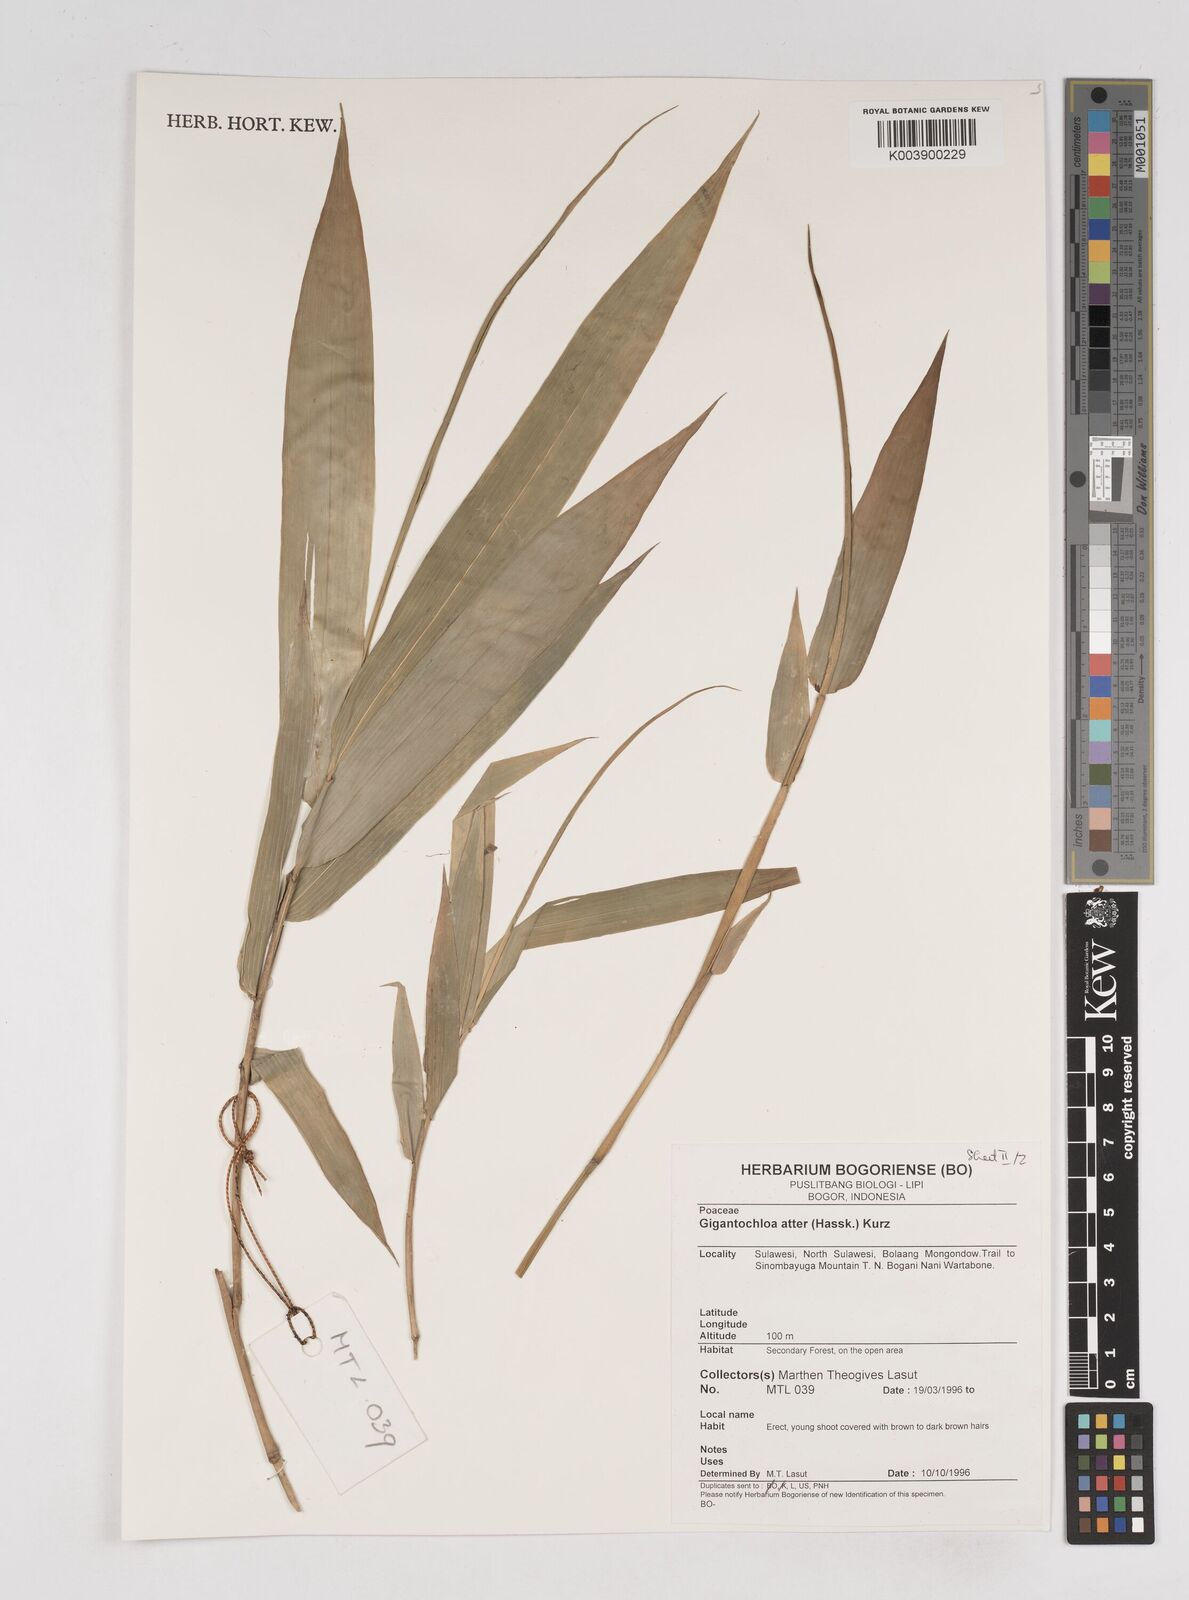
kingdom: Plantae
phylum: Tracheophyta
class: Liliopsida
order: Poales
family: Poaceae
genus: Gigantochloa
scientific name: Gigantochloa atter
